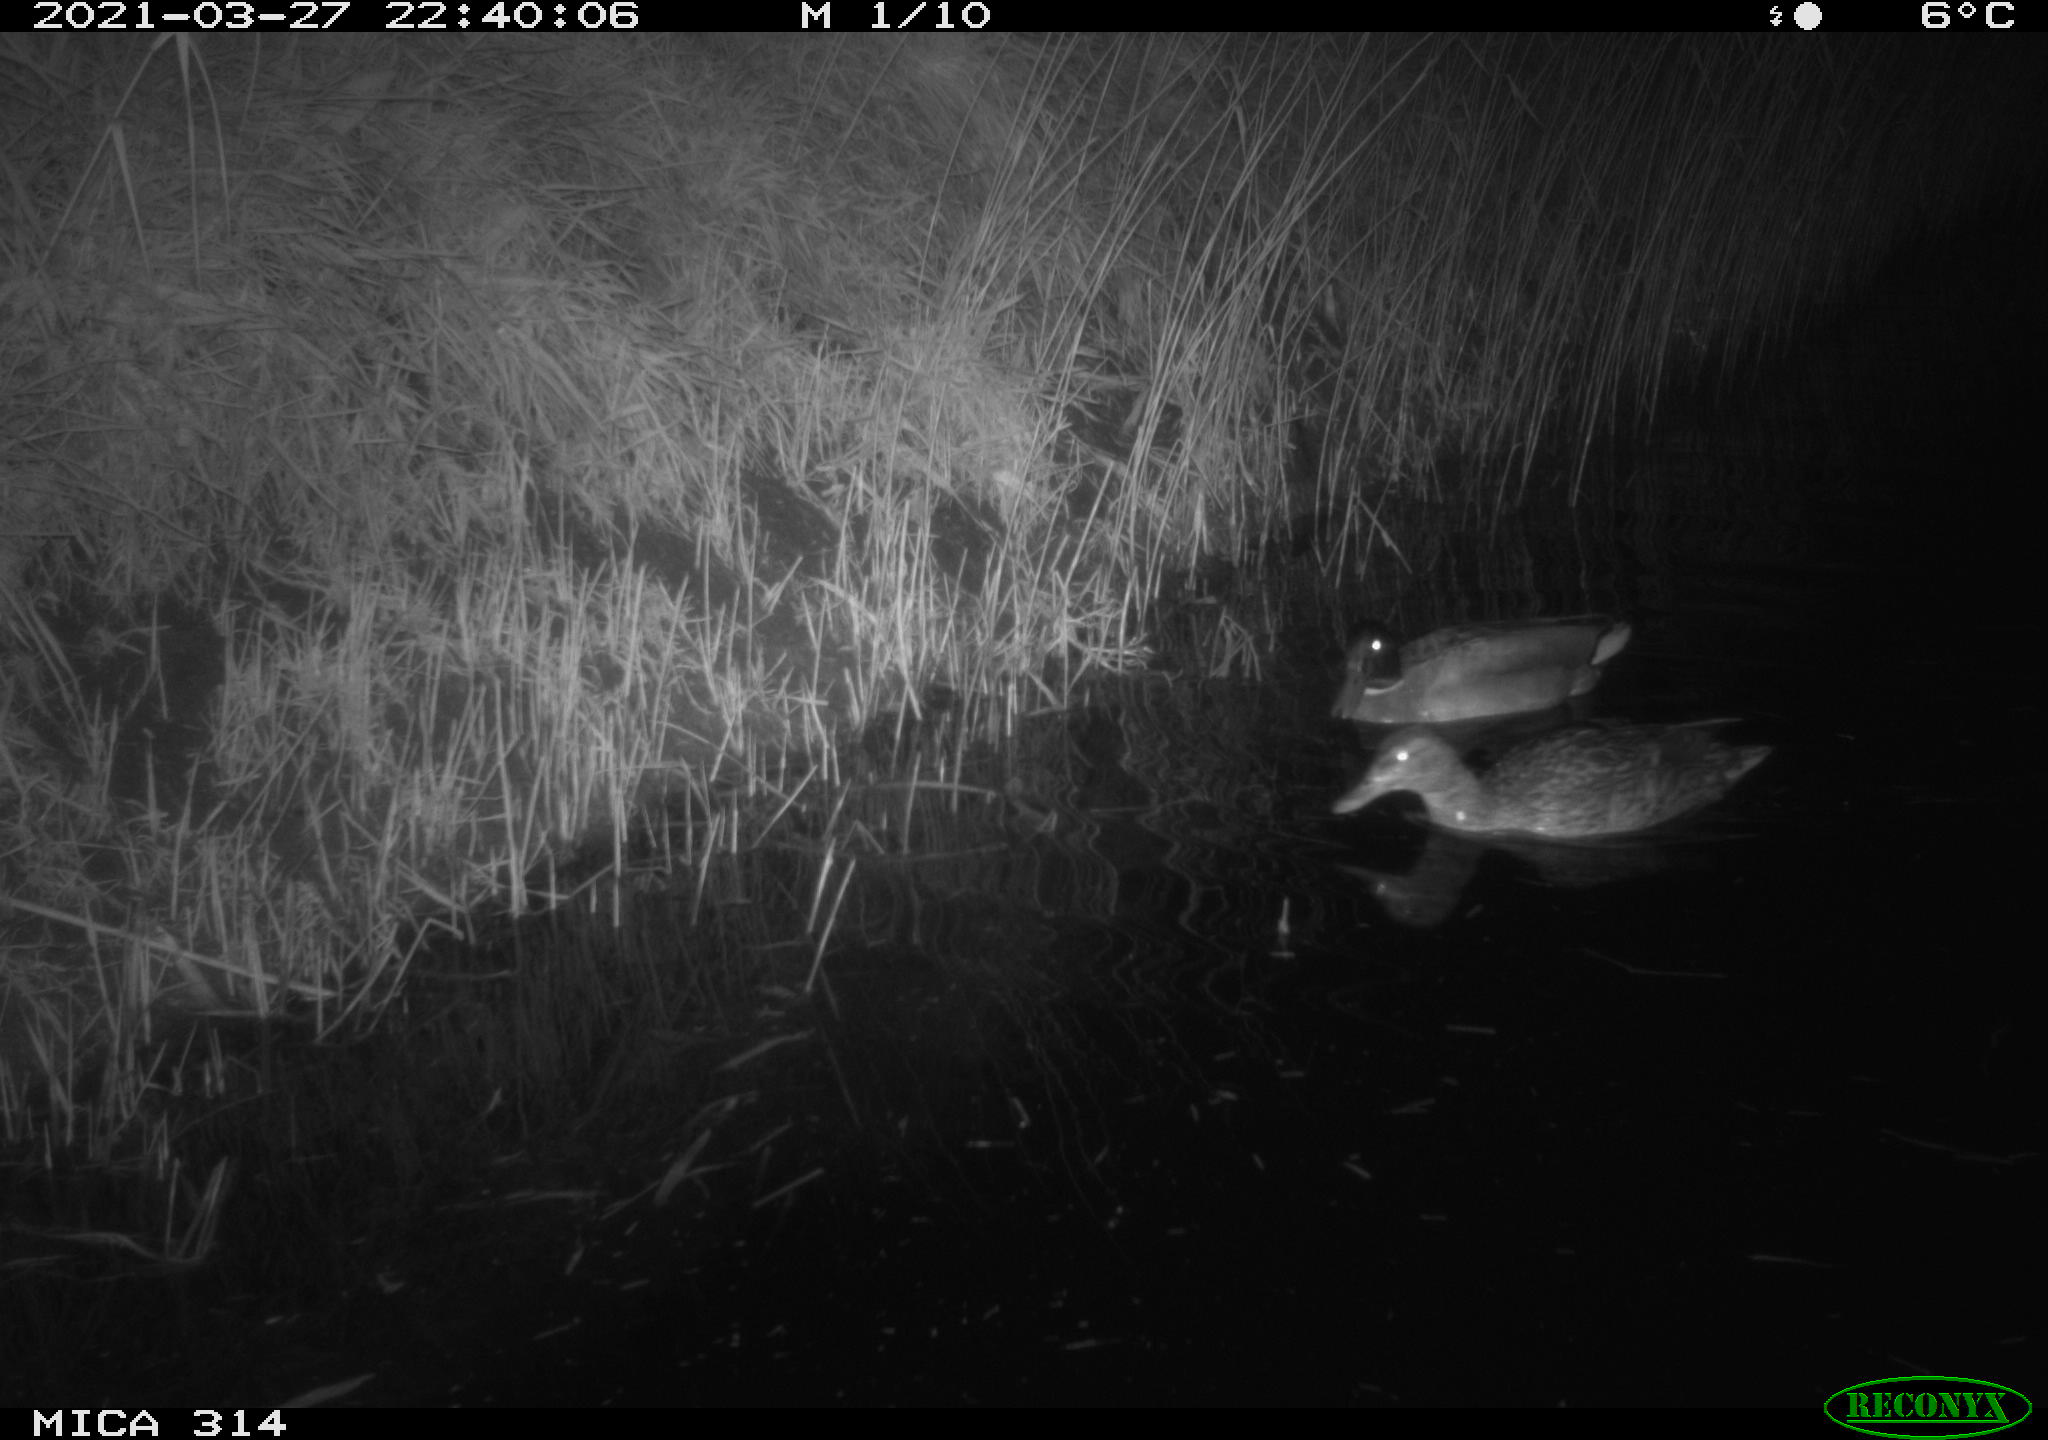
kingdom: Animalia
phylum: Chordata
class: Aves
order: Anseriformes
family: Anatidae
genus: Anas
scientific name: Anas platyrhynchos
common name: Mallard
